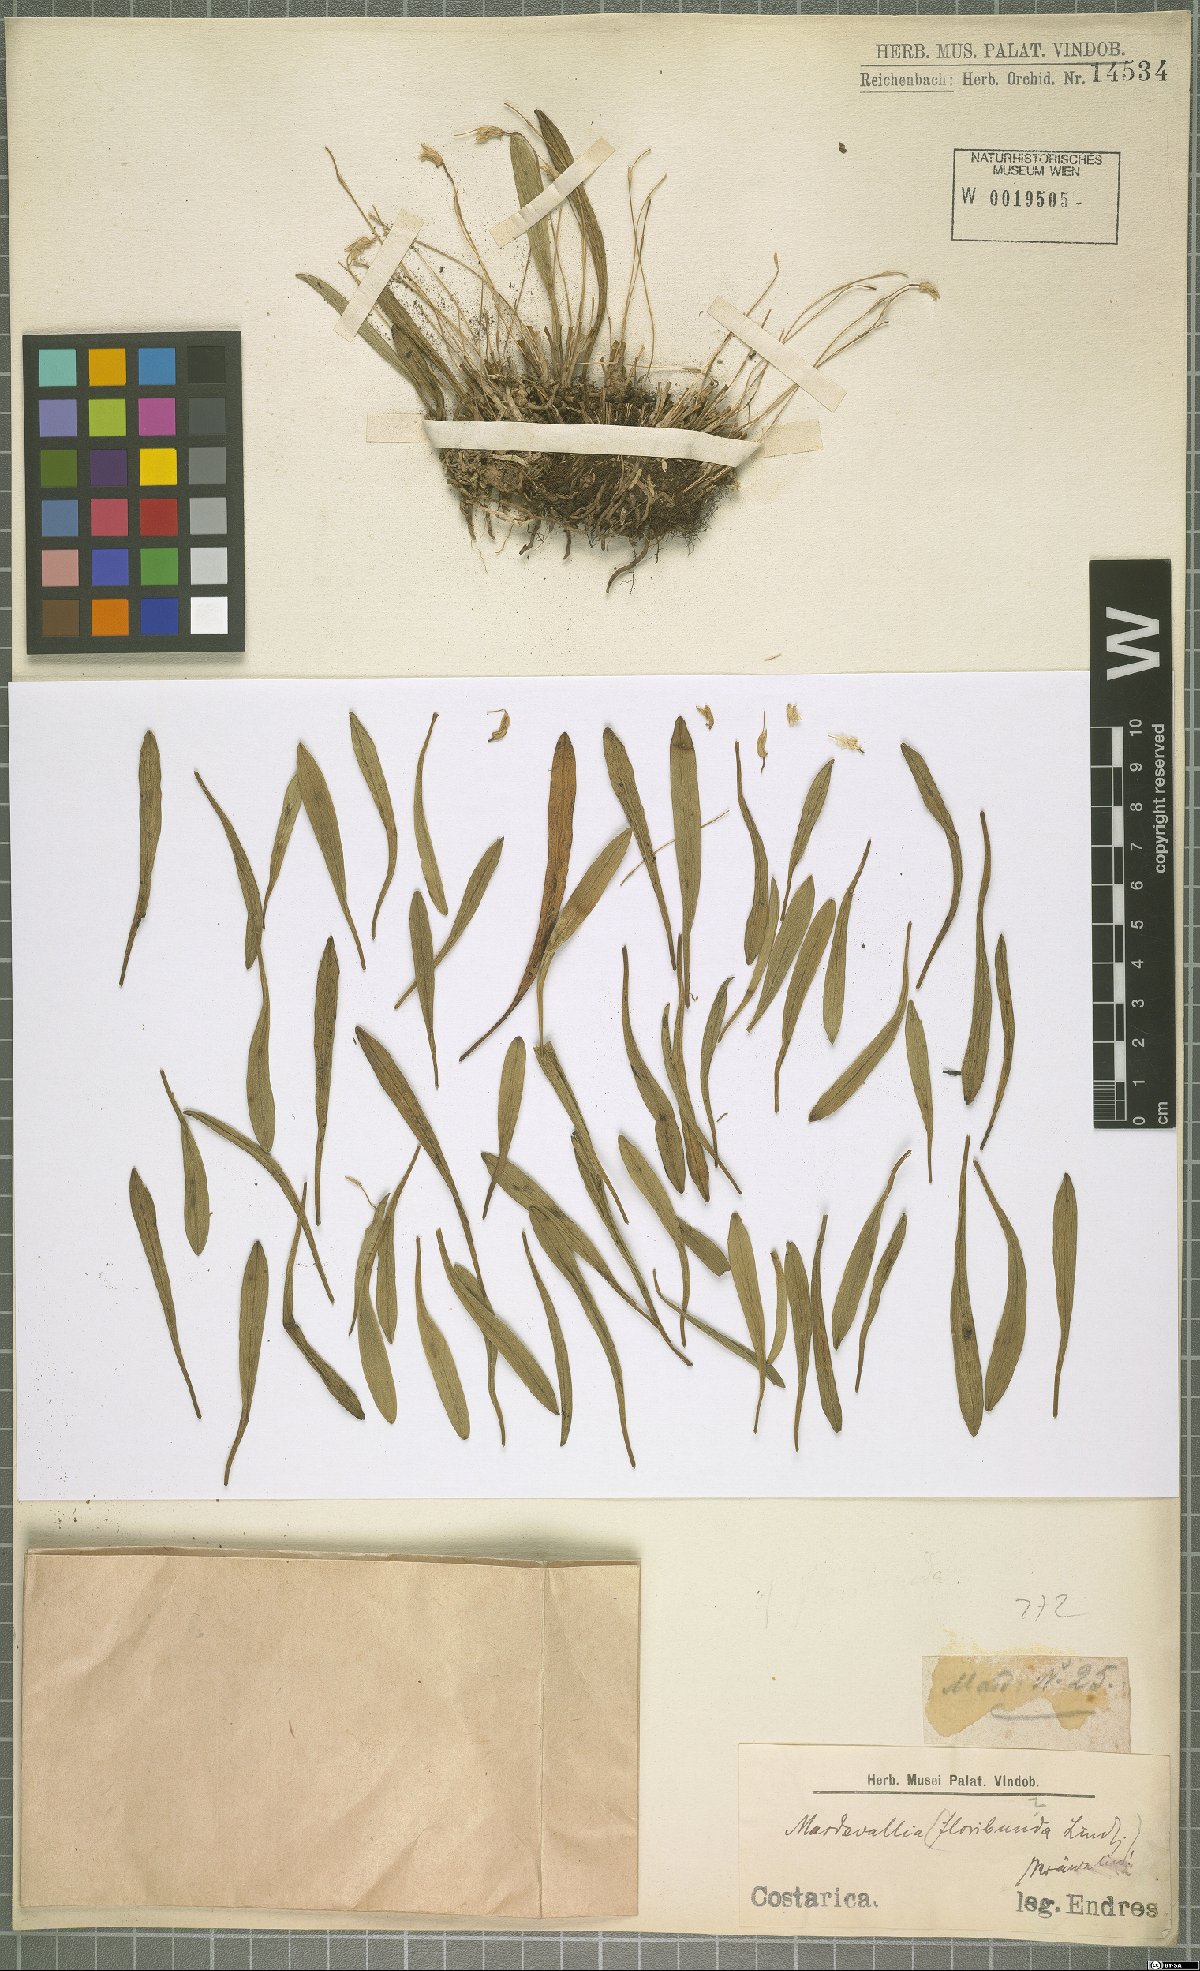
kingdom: Plantae
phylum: Tracheophyta
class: Liliopsida
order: Asparagales
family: Orchidaceae
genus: Masdevallia
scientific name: Masdevallia floribunda
